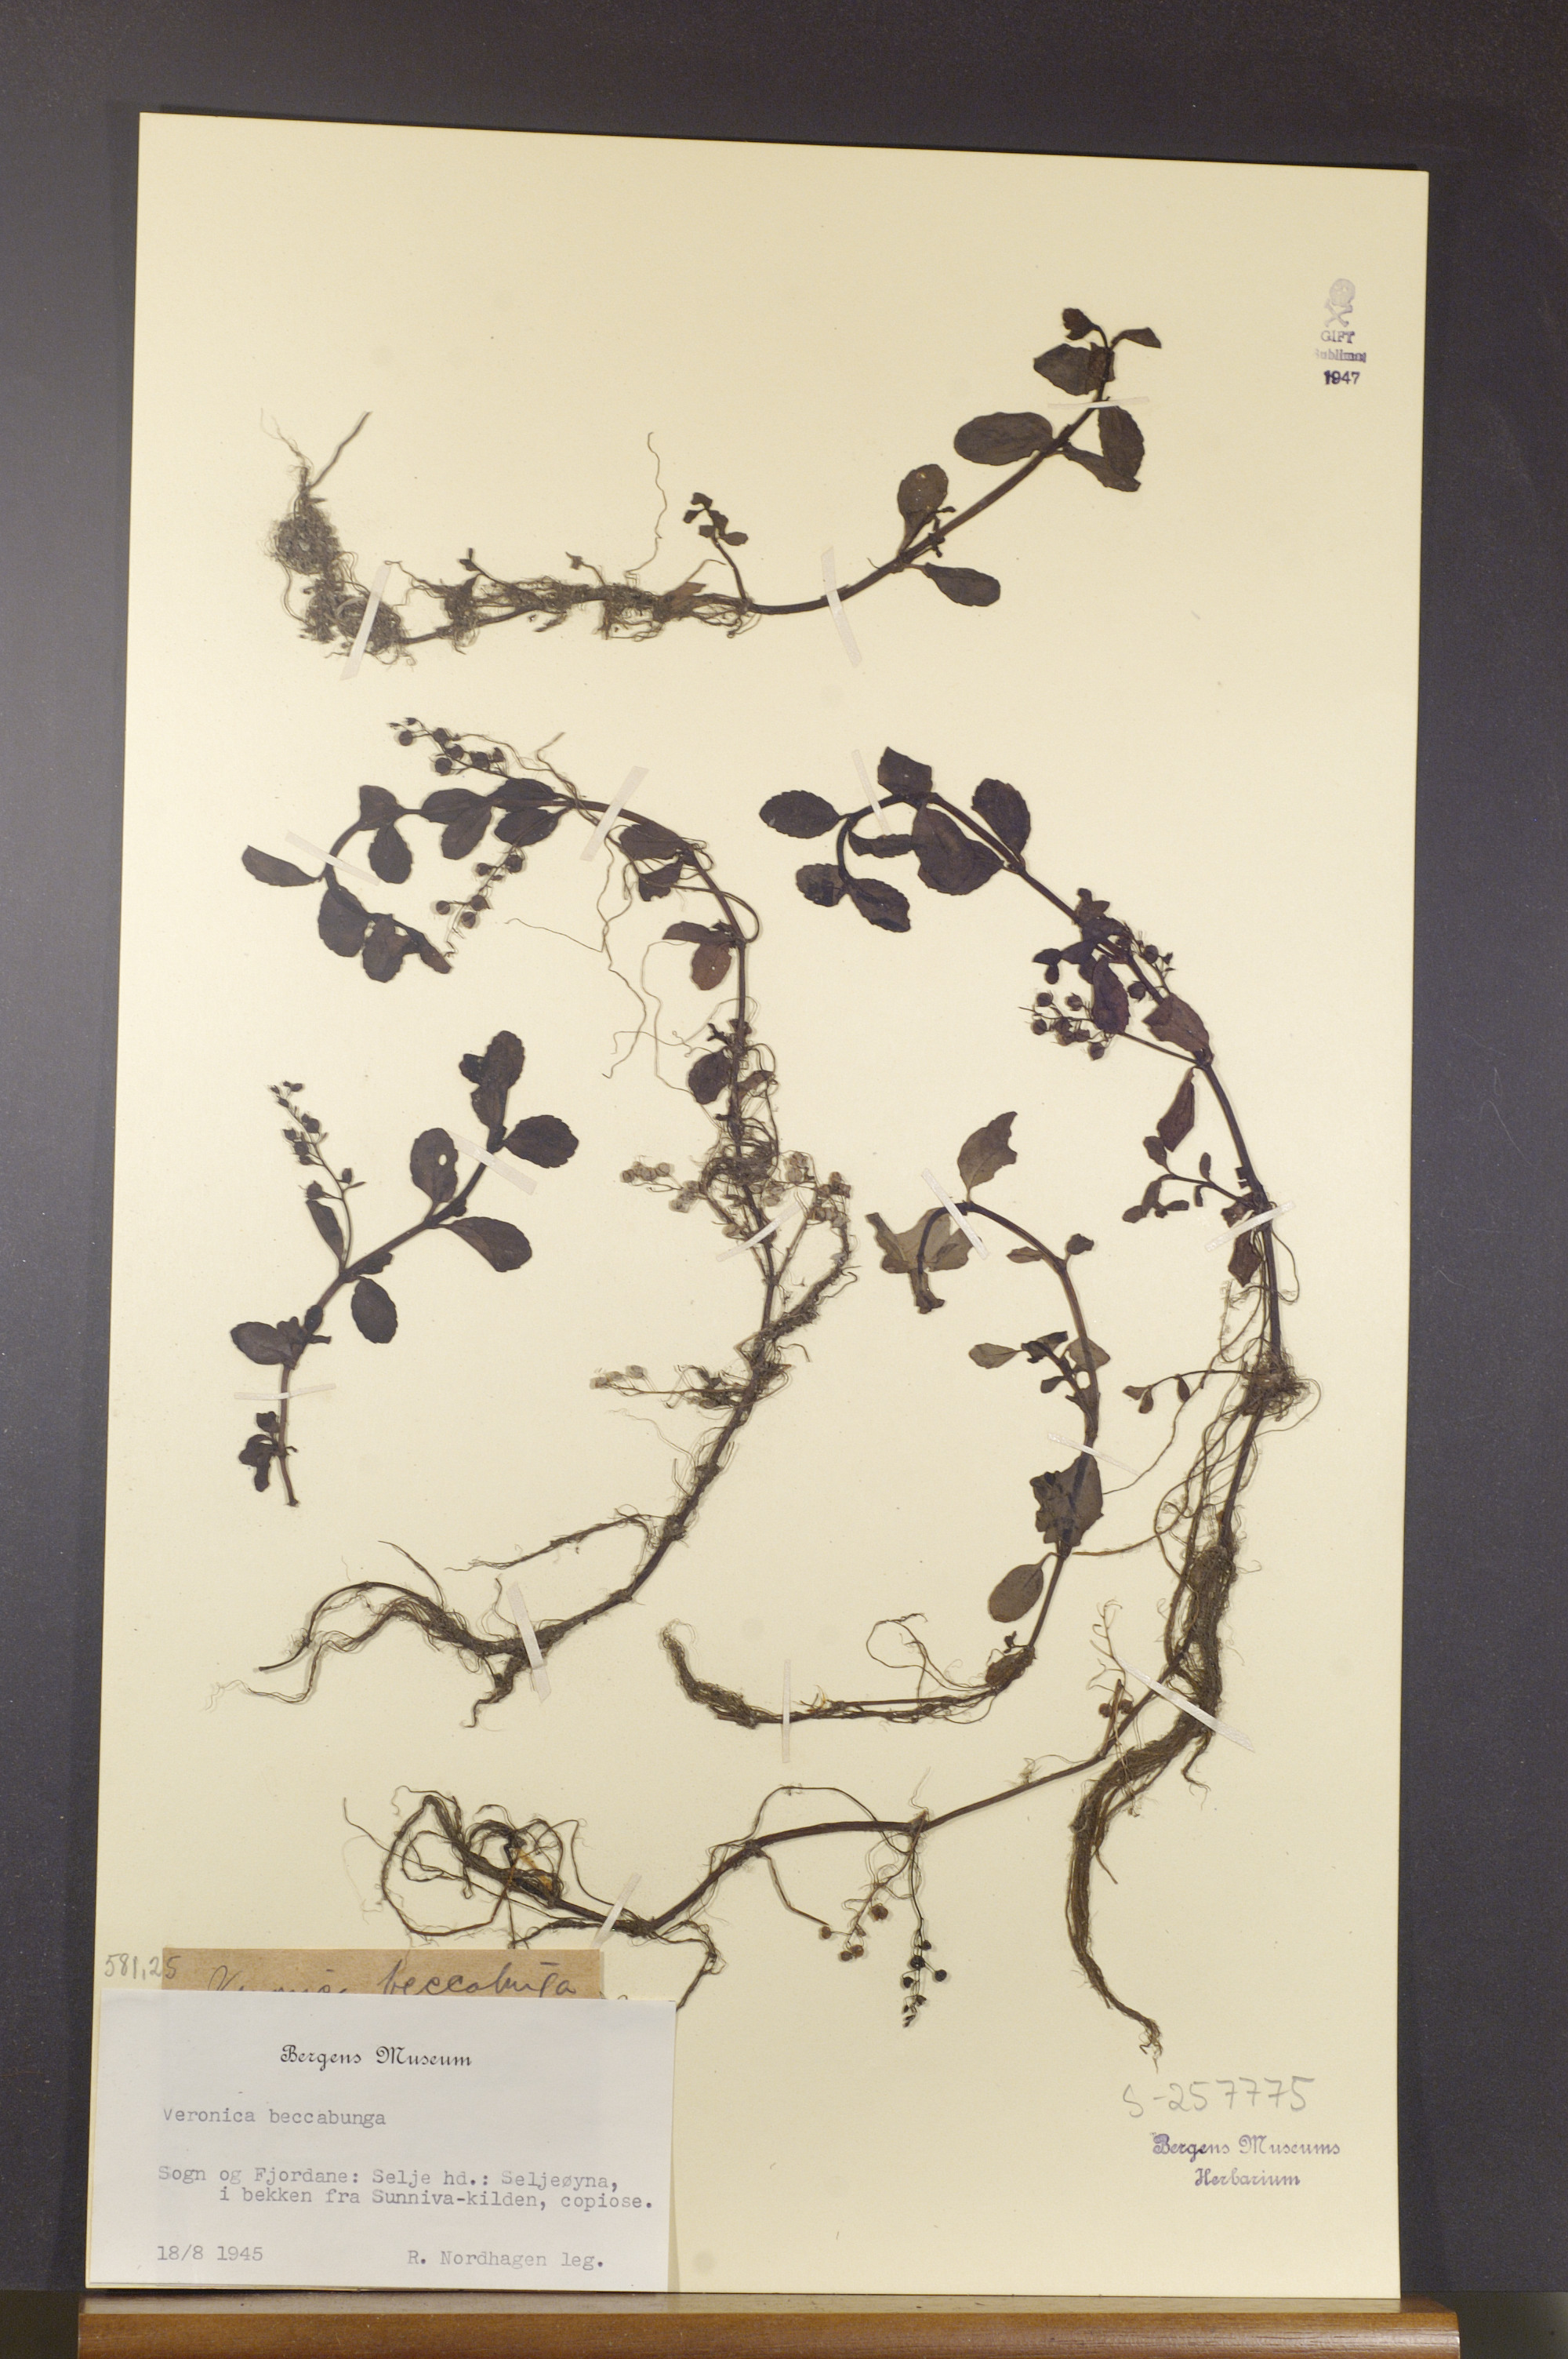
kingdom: Plantae
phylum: Tracheophyta
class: Magnoliopsida
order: Lamiales
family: Plantaginaceae
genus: Veronica
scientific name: Veronica beccabunga
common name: Brooklime
